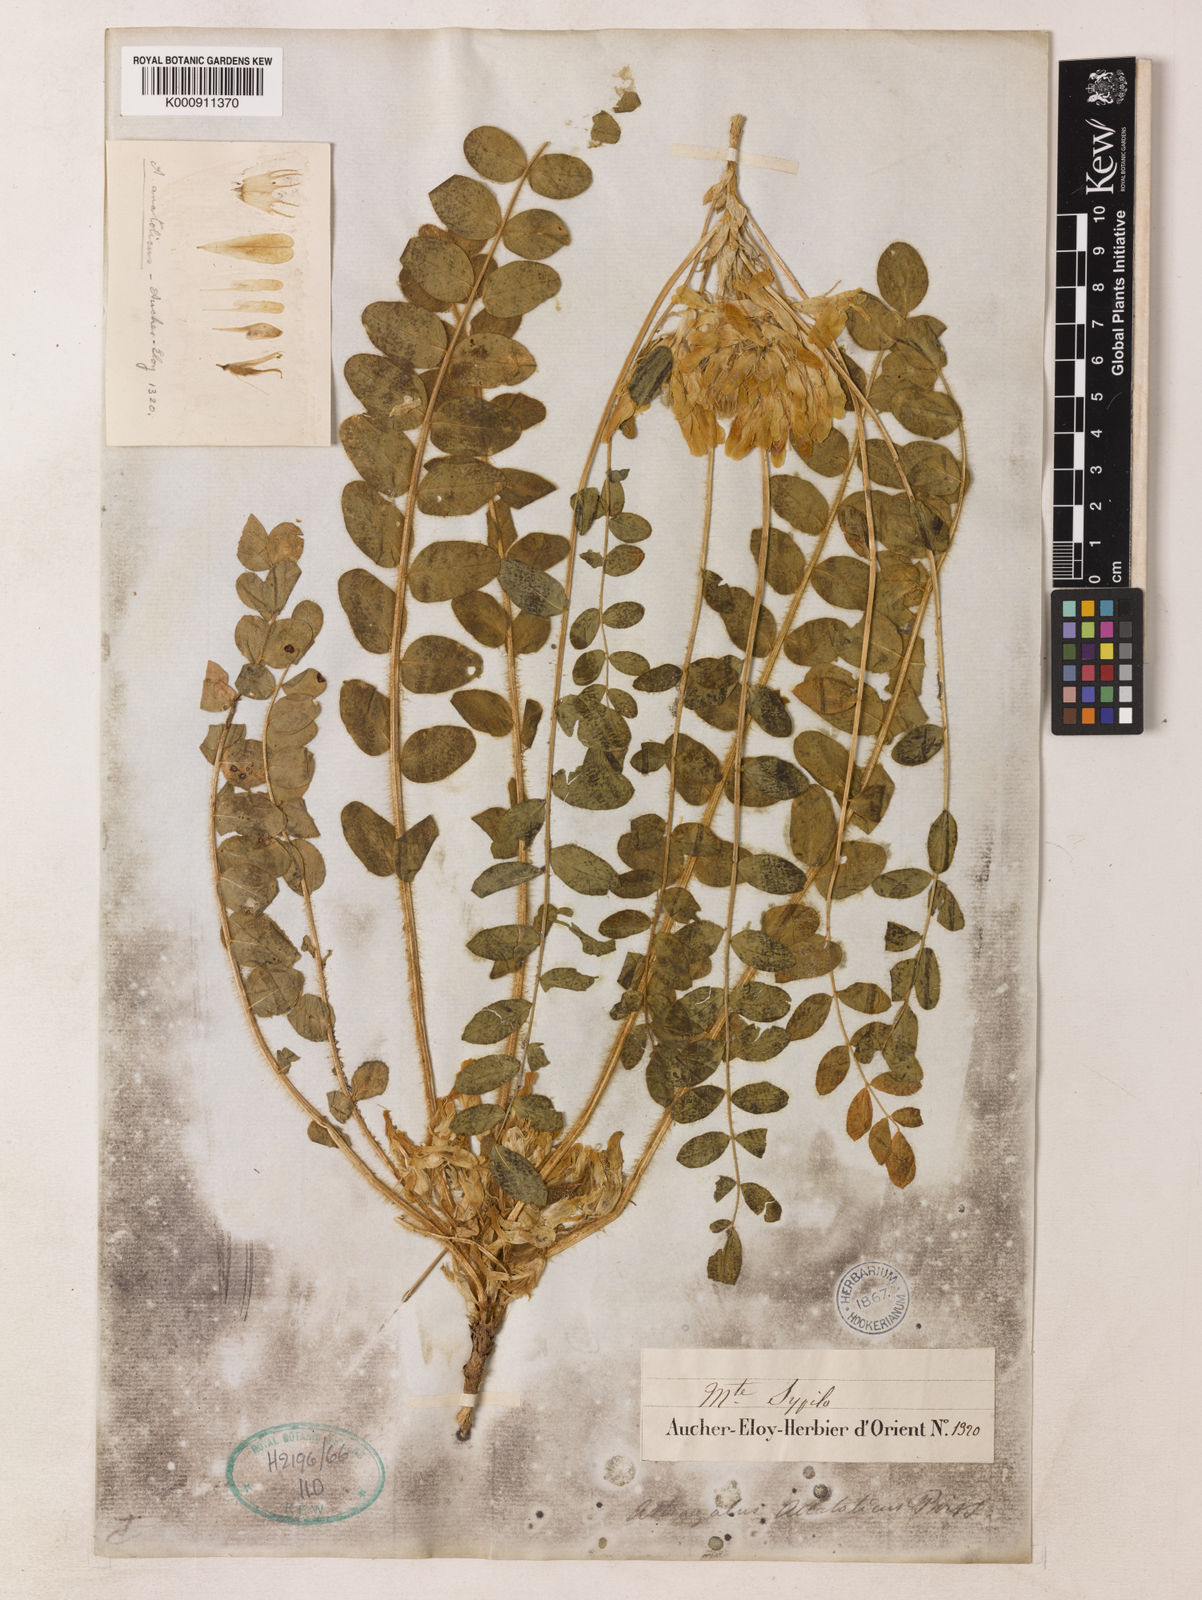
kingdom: Plantae
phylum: Tracheophyta
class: Magnoliopsida
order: Fabales
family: Fabaceae
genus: Astragalus
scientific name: Astragalus angustiflorus
